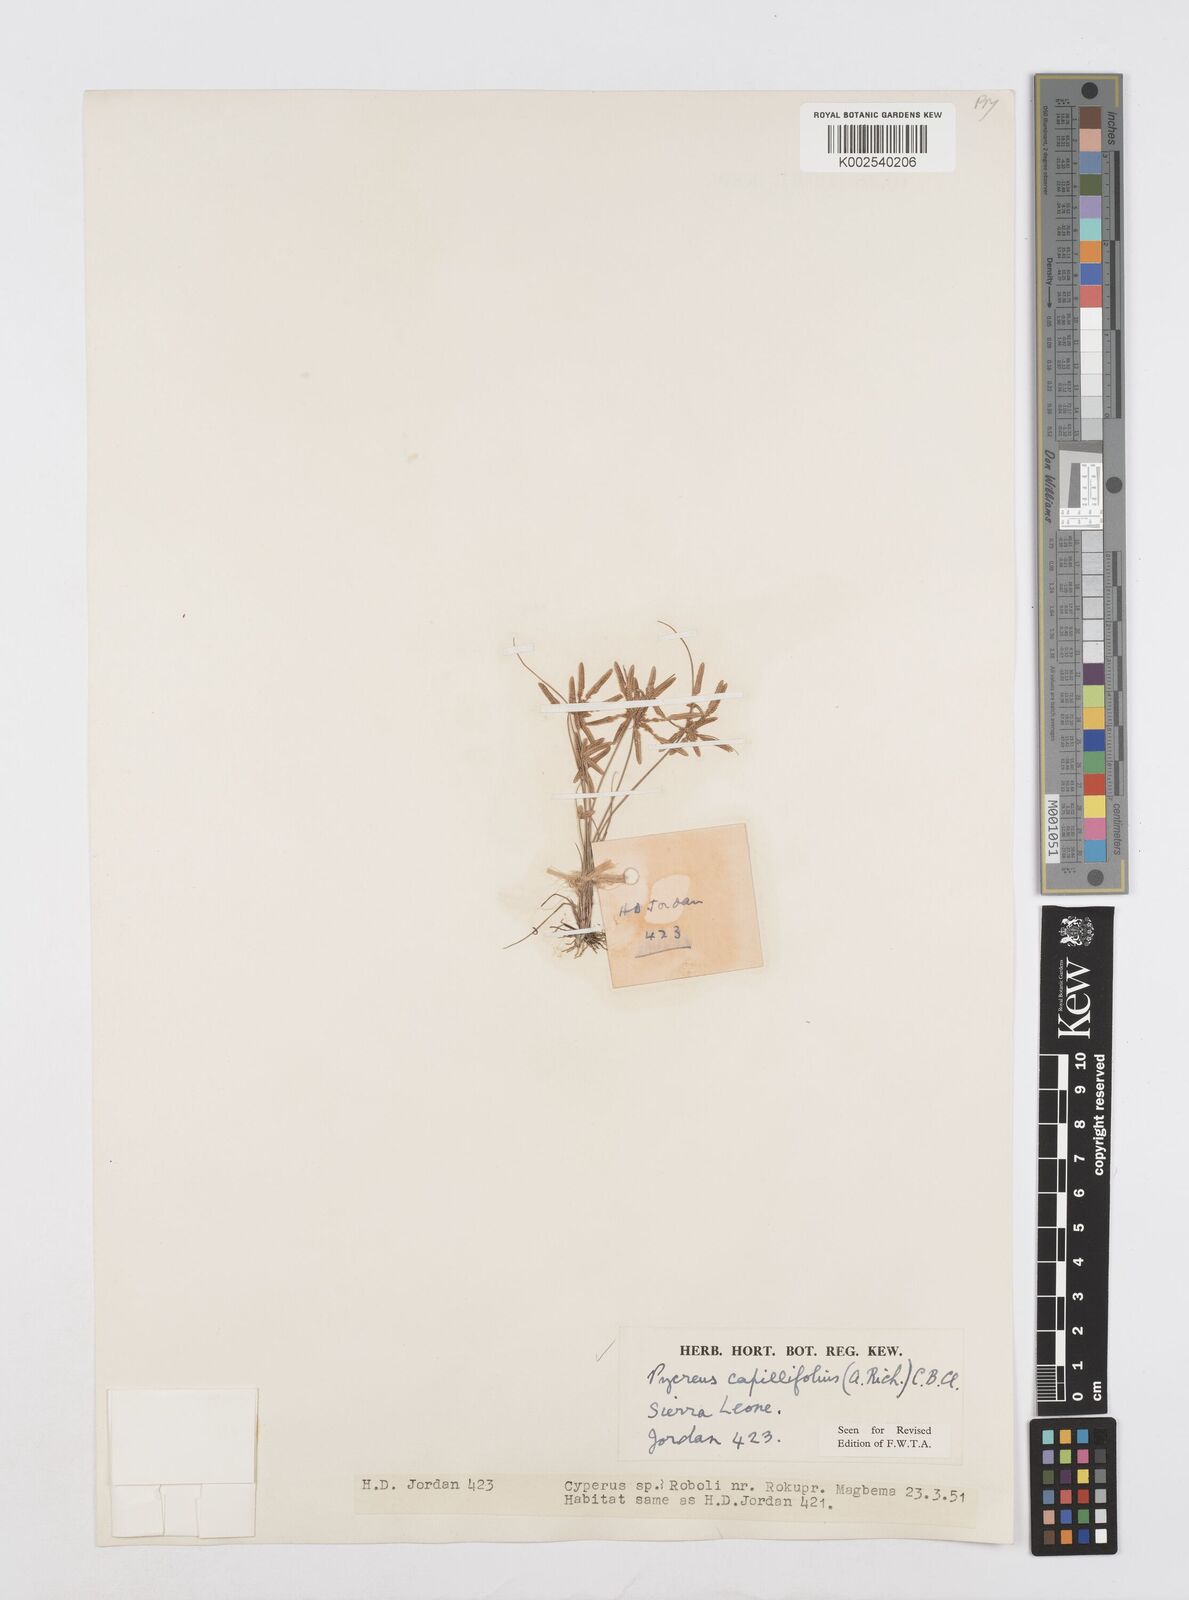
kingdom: Plantae
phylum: Tracheophyta
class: Liliopsida
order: Poales
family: Cyperaceae
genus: Cyperus
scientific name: Cyperus capillifolius
